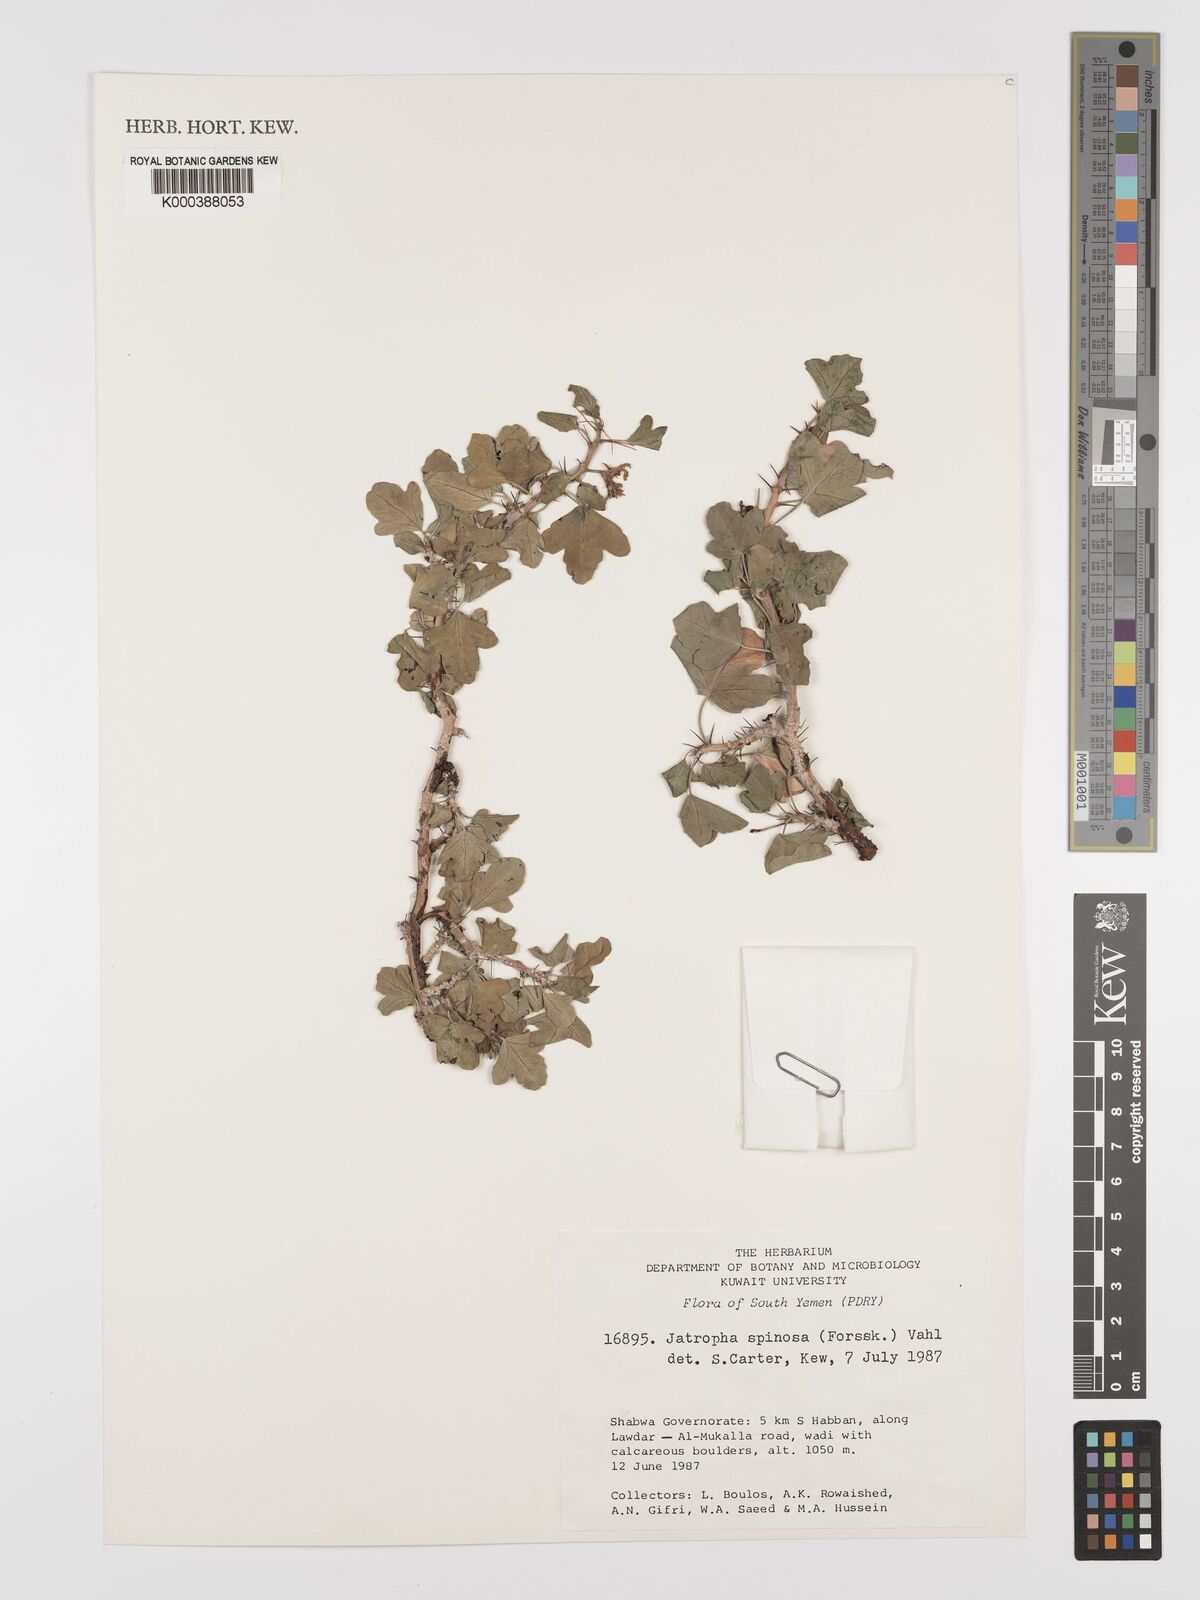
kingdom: Plantae
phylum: Tracheophyta
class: Magnoliopsida
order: Malpighiales
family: Euphorbiaceae
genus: Jatropha
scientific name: Jatropha spinosa
